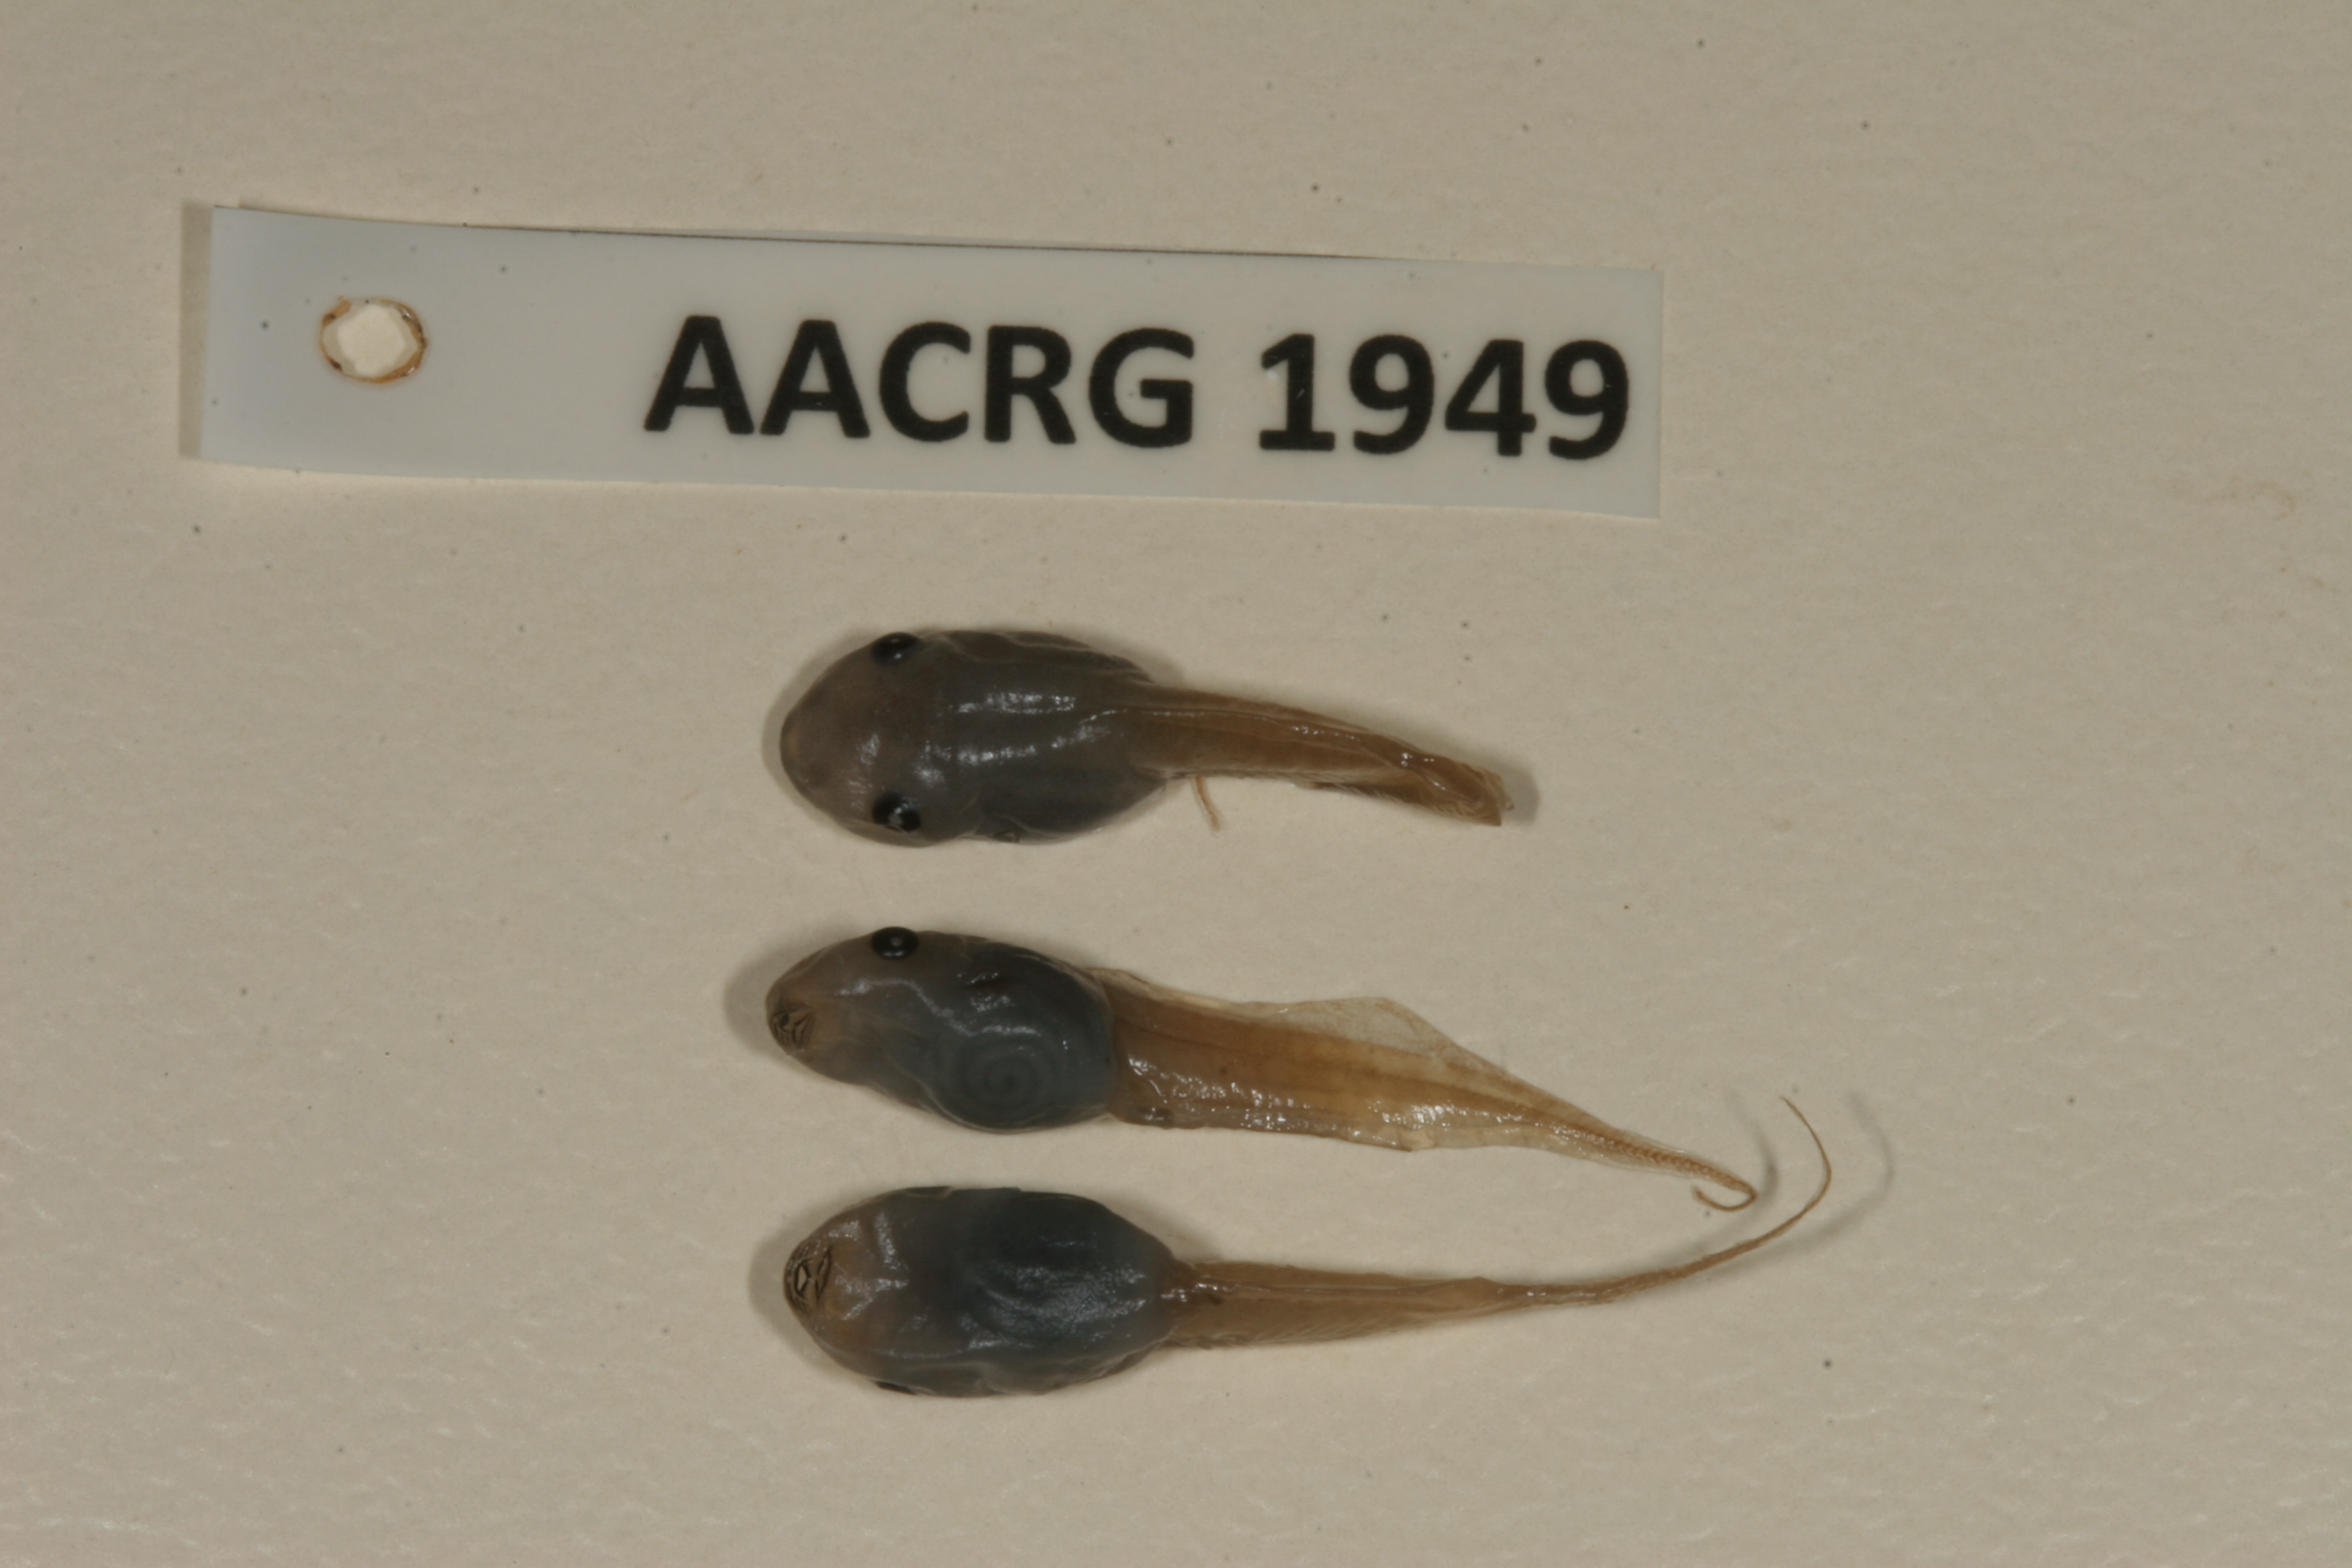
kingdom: Animalia
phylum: Chordata
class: Amphibia
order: Anura
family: Hemisotidae
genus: Hemisus
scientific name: Hemisus marmoratus
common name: Mottled shovel-nosed frog
